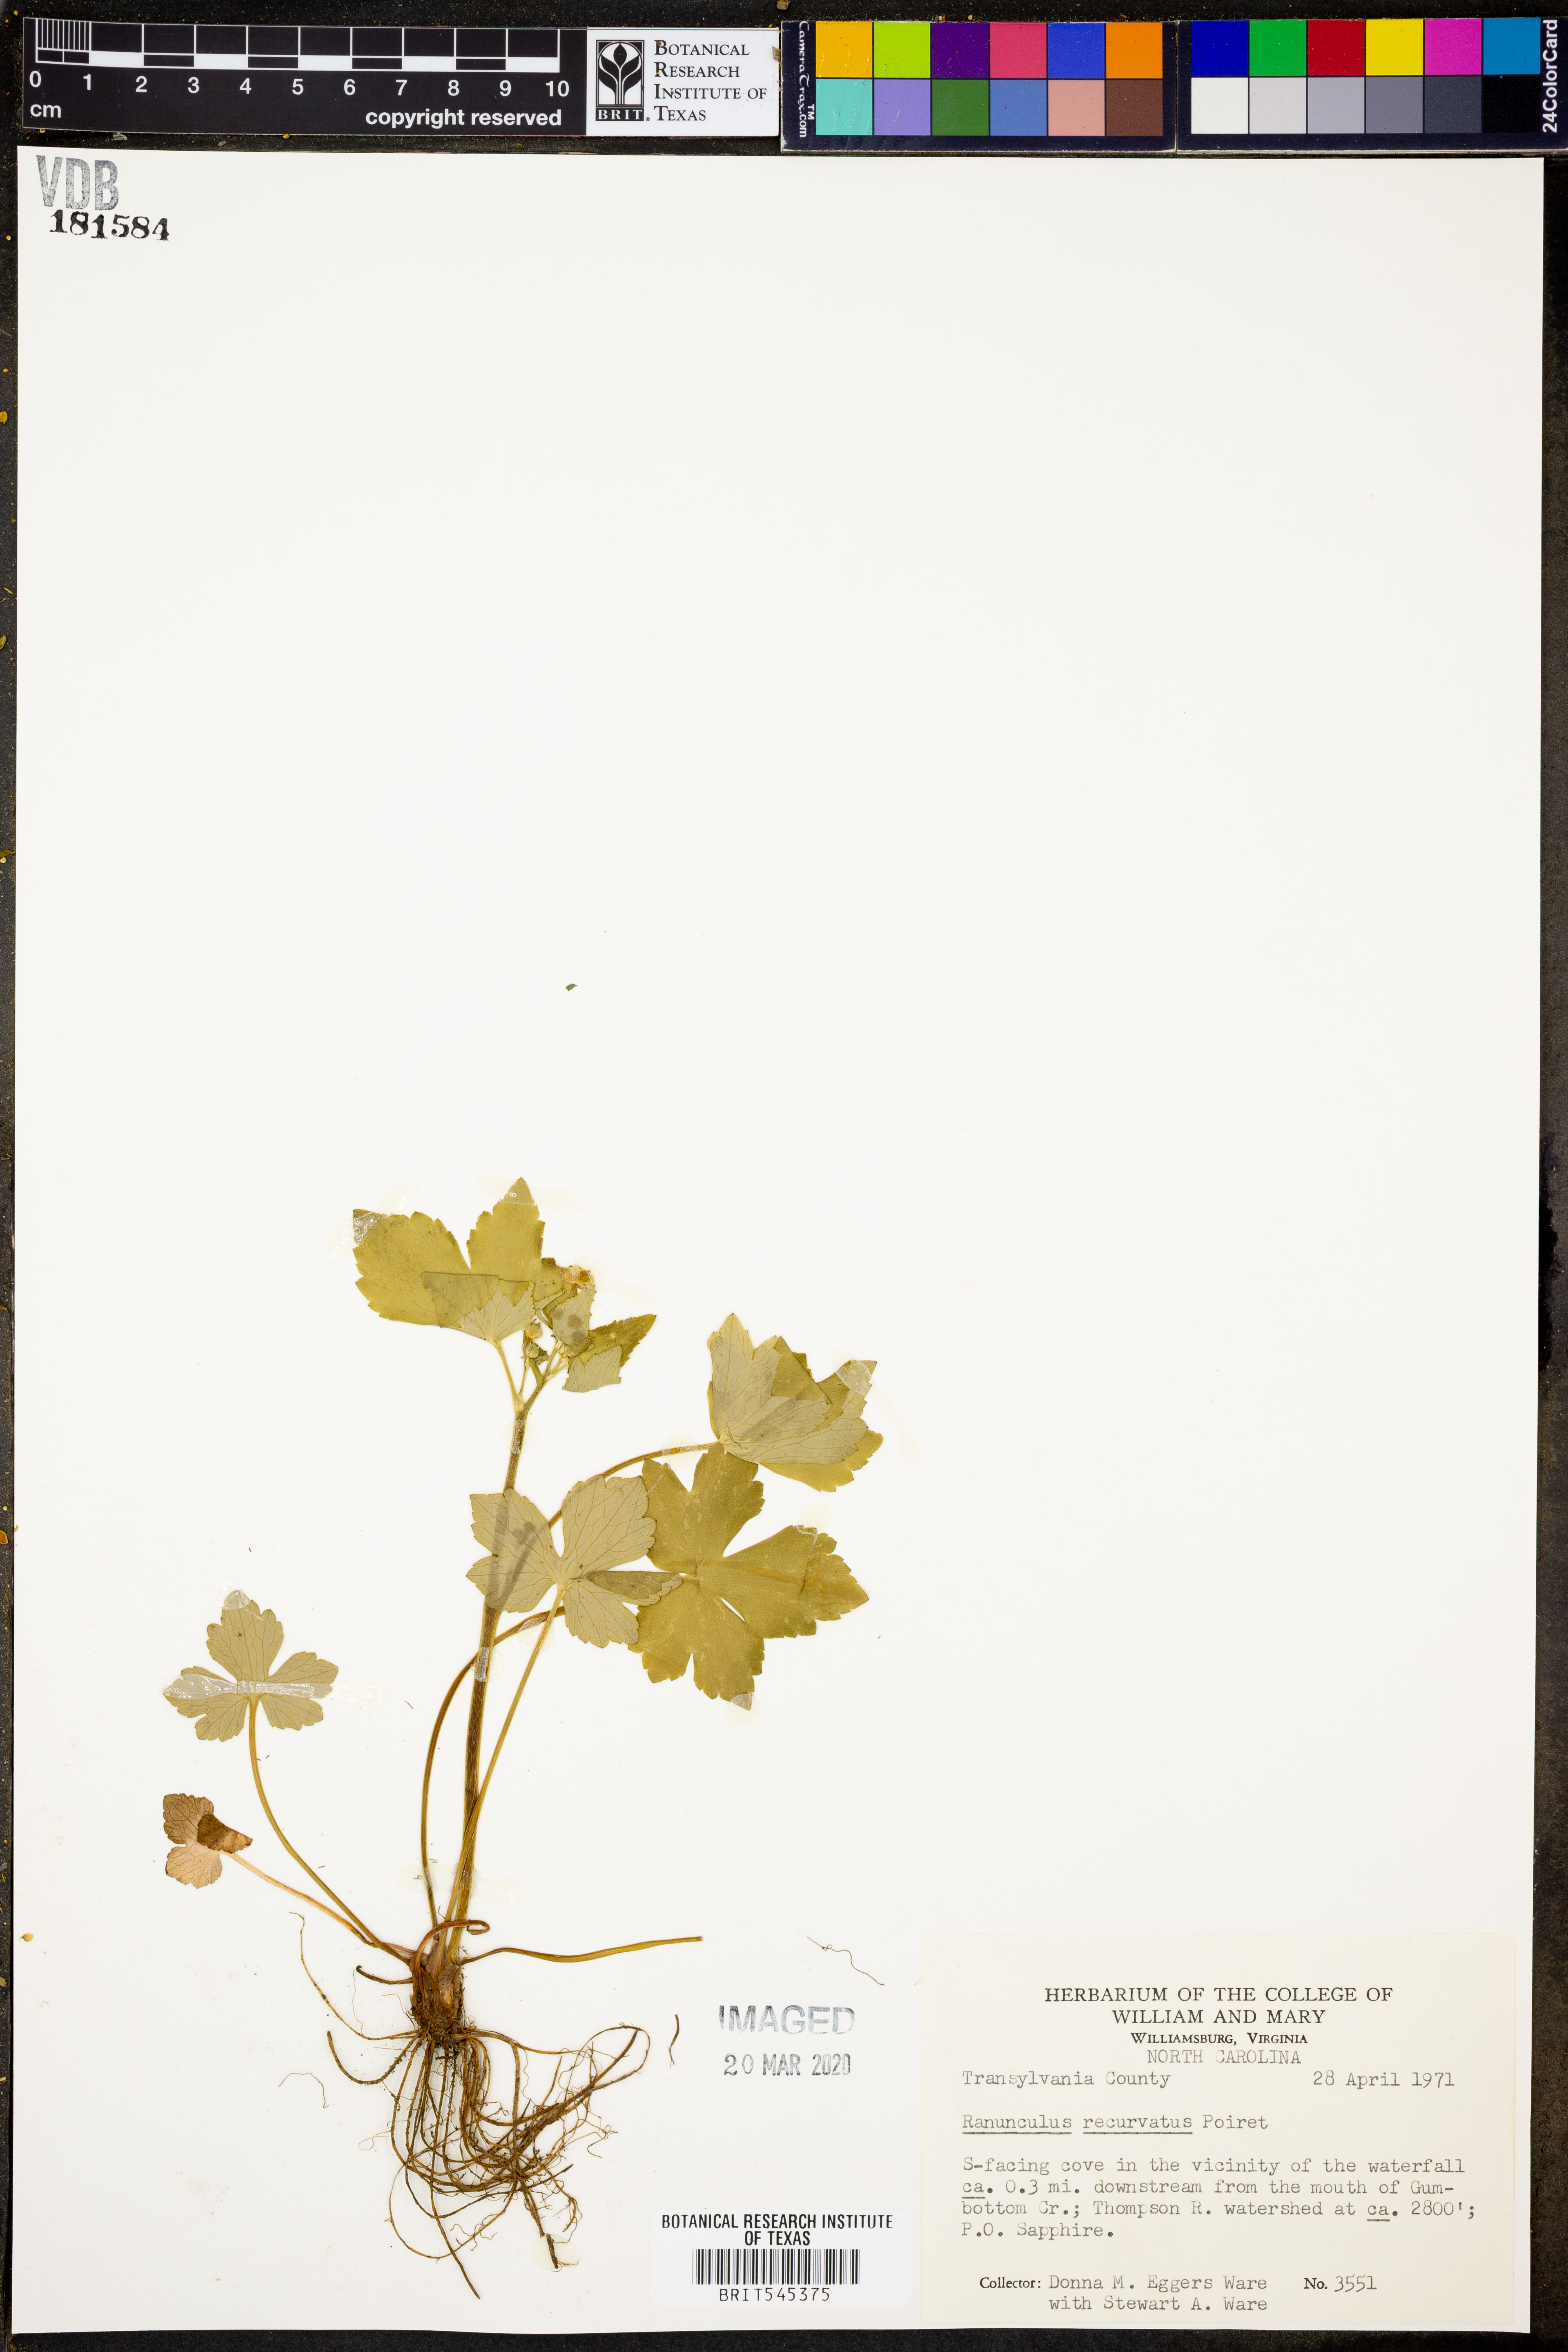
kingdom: Plantae
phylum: Tracheophyta
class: Magnoliopsida
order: Ranunculales
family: Ranunculaceae
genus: Ranunculus
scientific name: Ranunculus recurvatus
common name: Blisterwort
